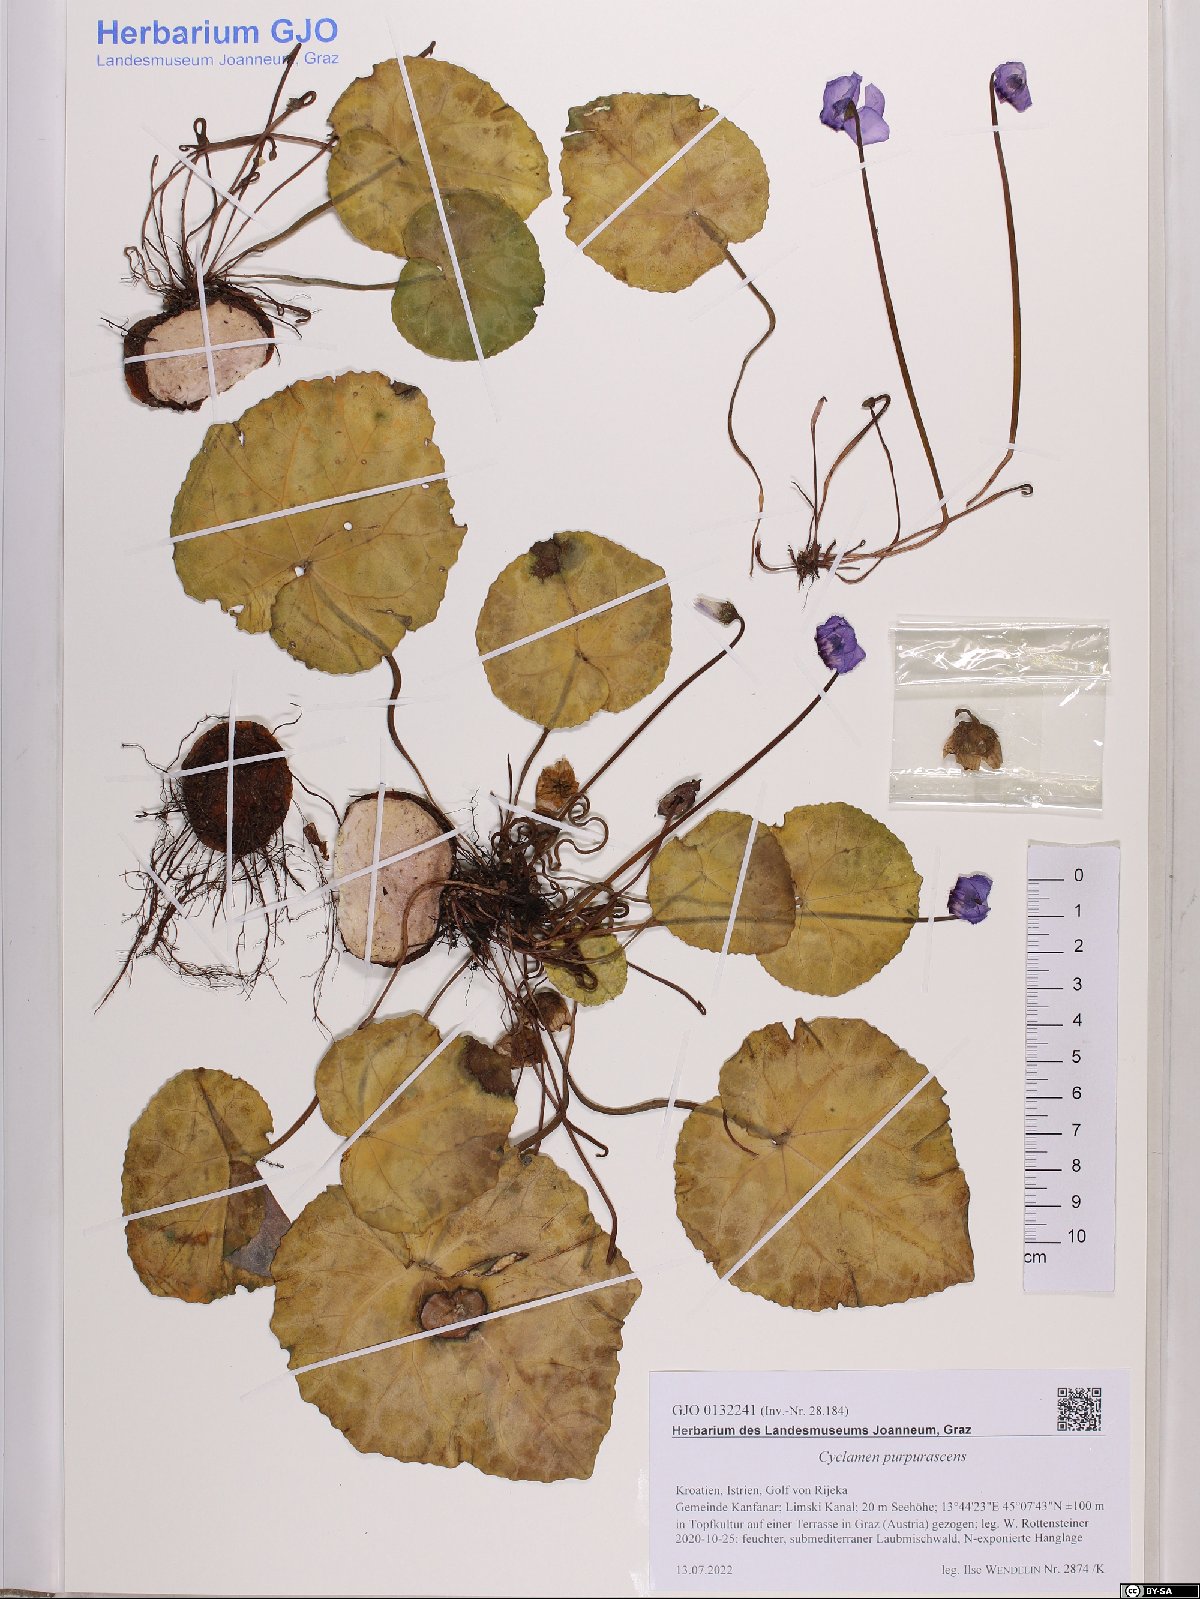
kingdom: Plantae
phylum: Tracheophyta
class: Magnoliopsida
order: Ericales
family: Primulaceae
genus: Cyclamen
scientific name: Cyclamen purpurascens
